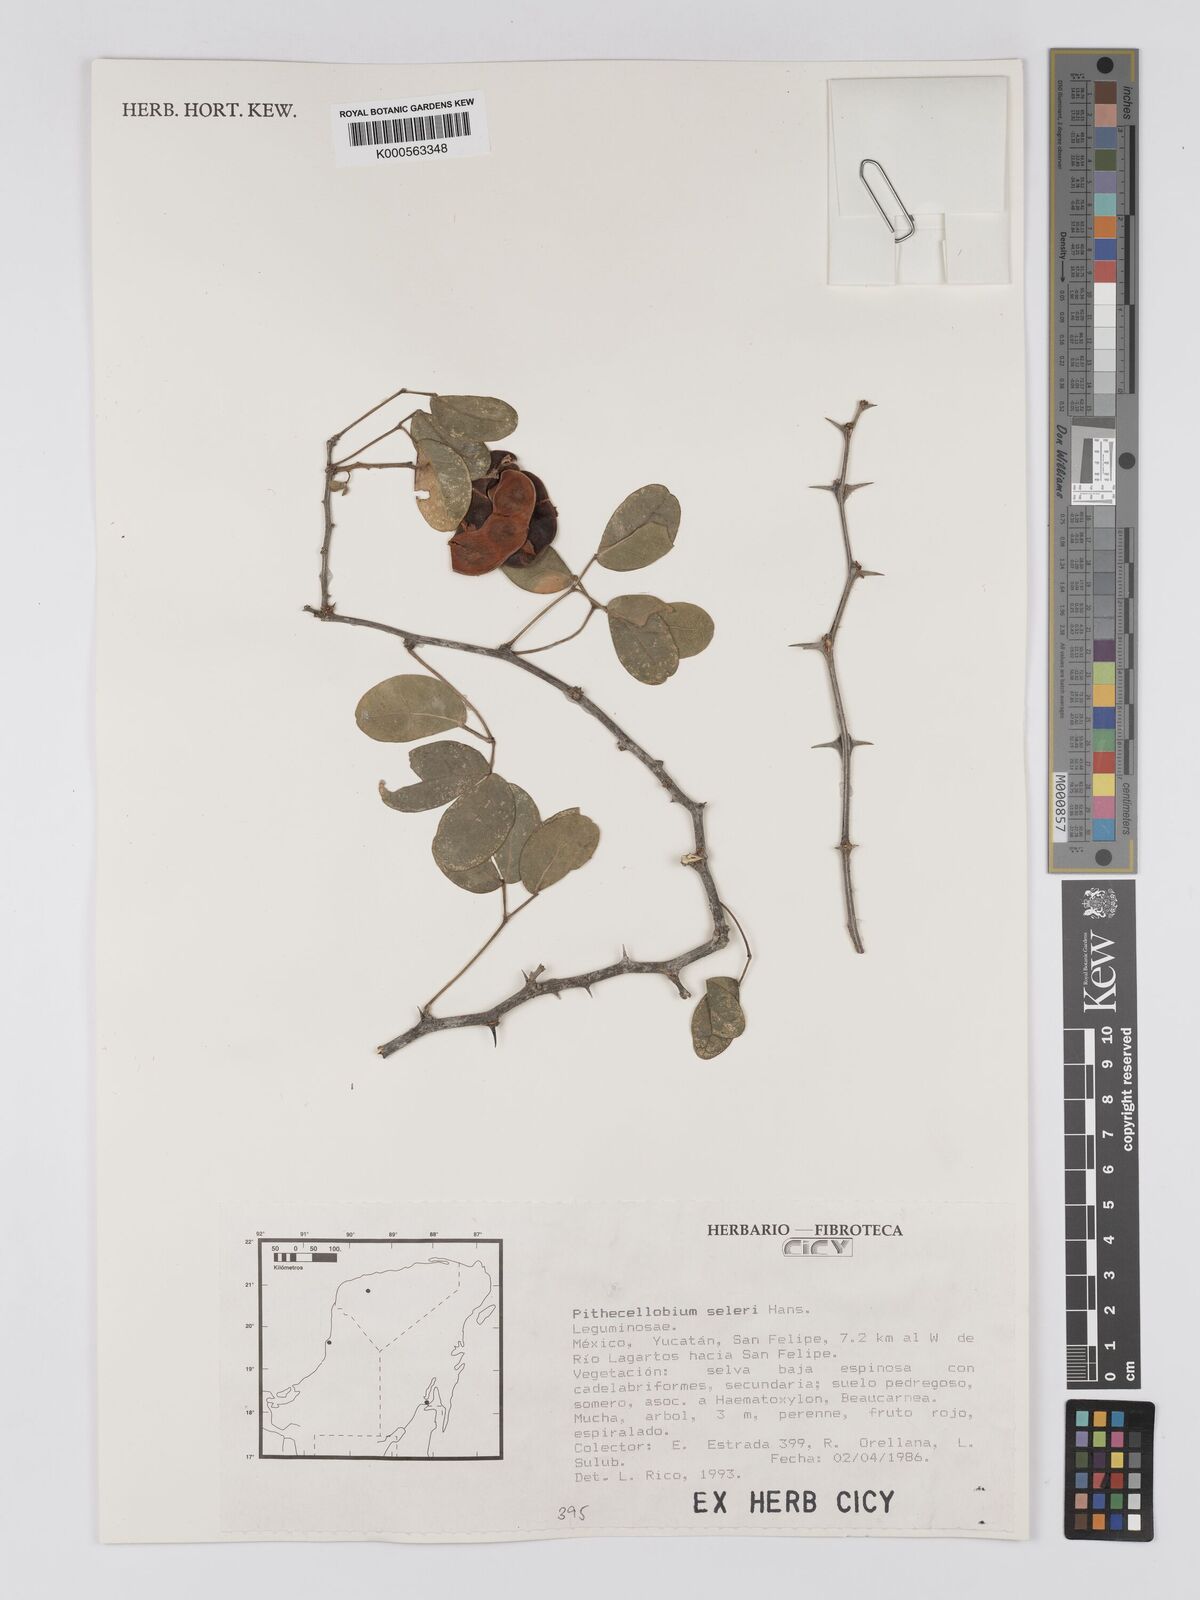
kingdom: Plantae
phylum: Tracheophyta
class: Magnoliopsida
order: Fabales
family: Fabaceae
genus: Pithecellobium
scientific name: Pithecellobium unguis-cati
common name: Cat's-claw
